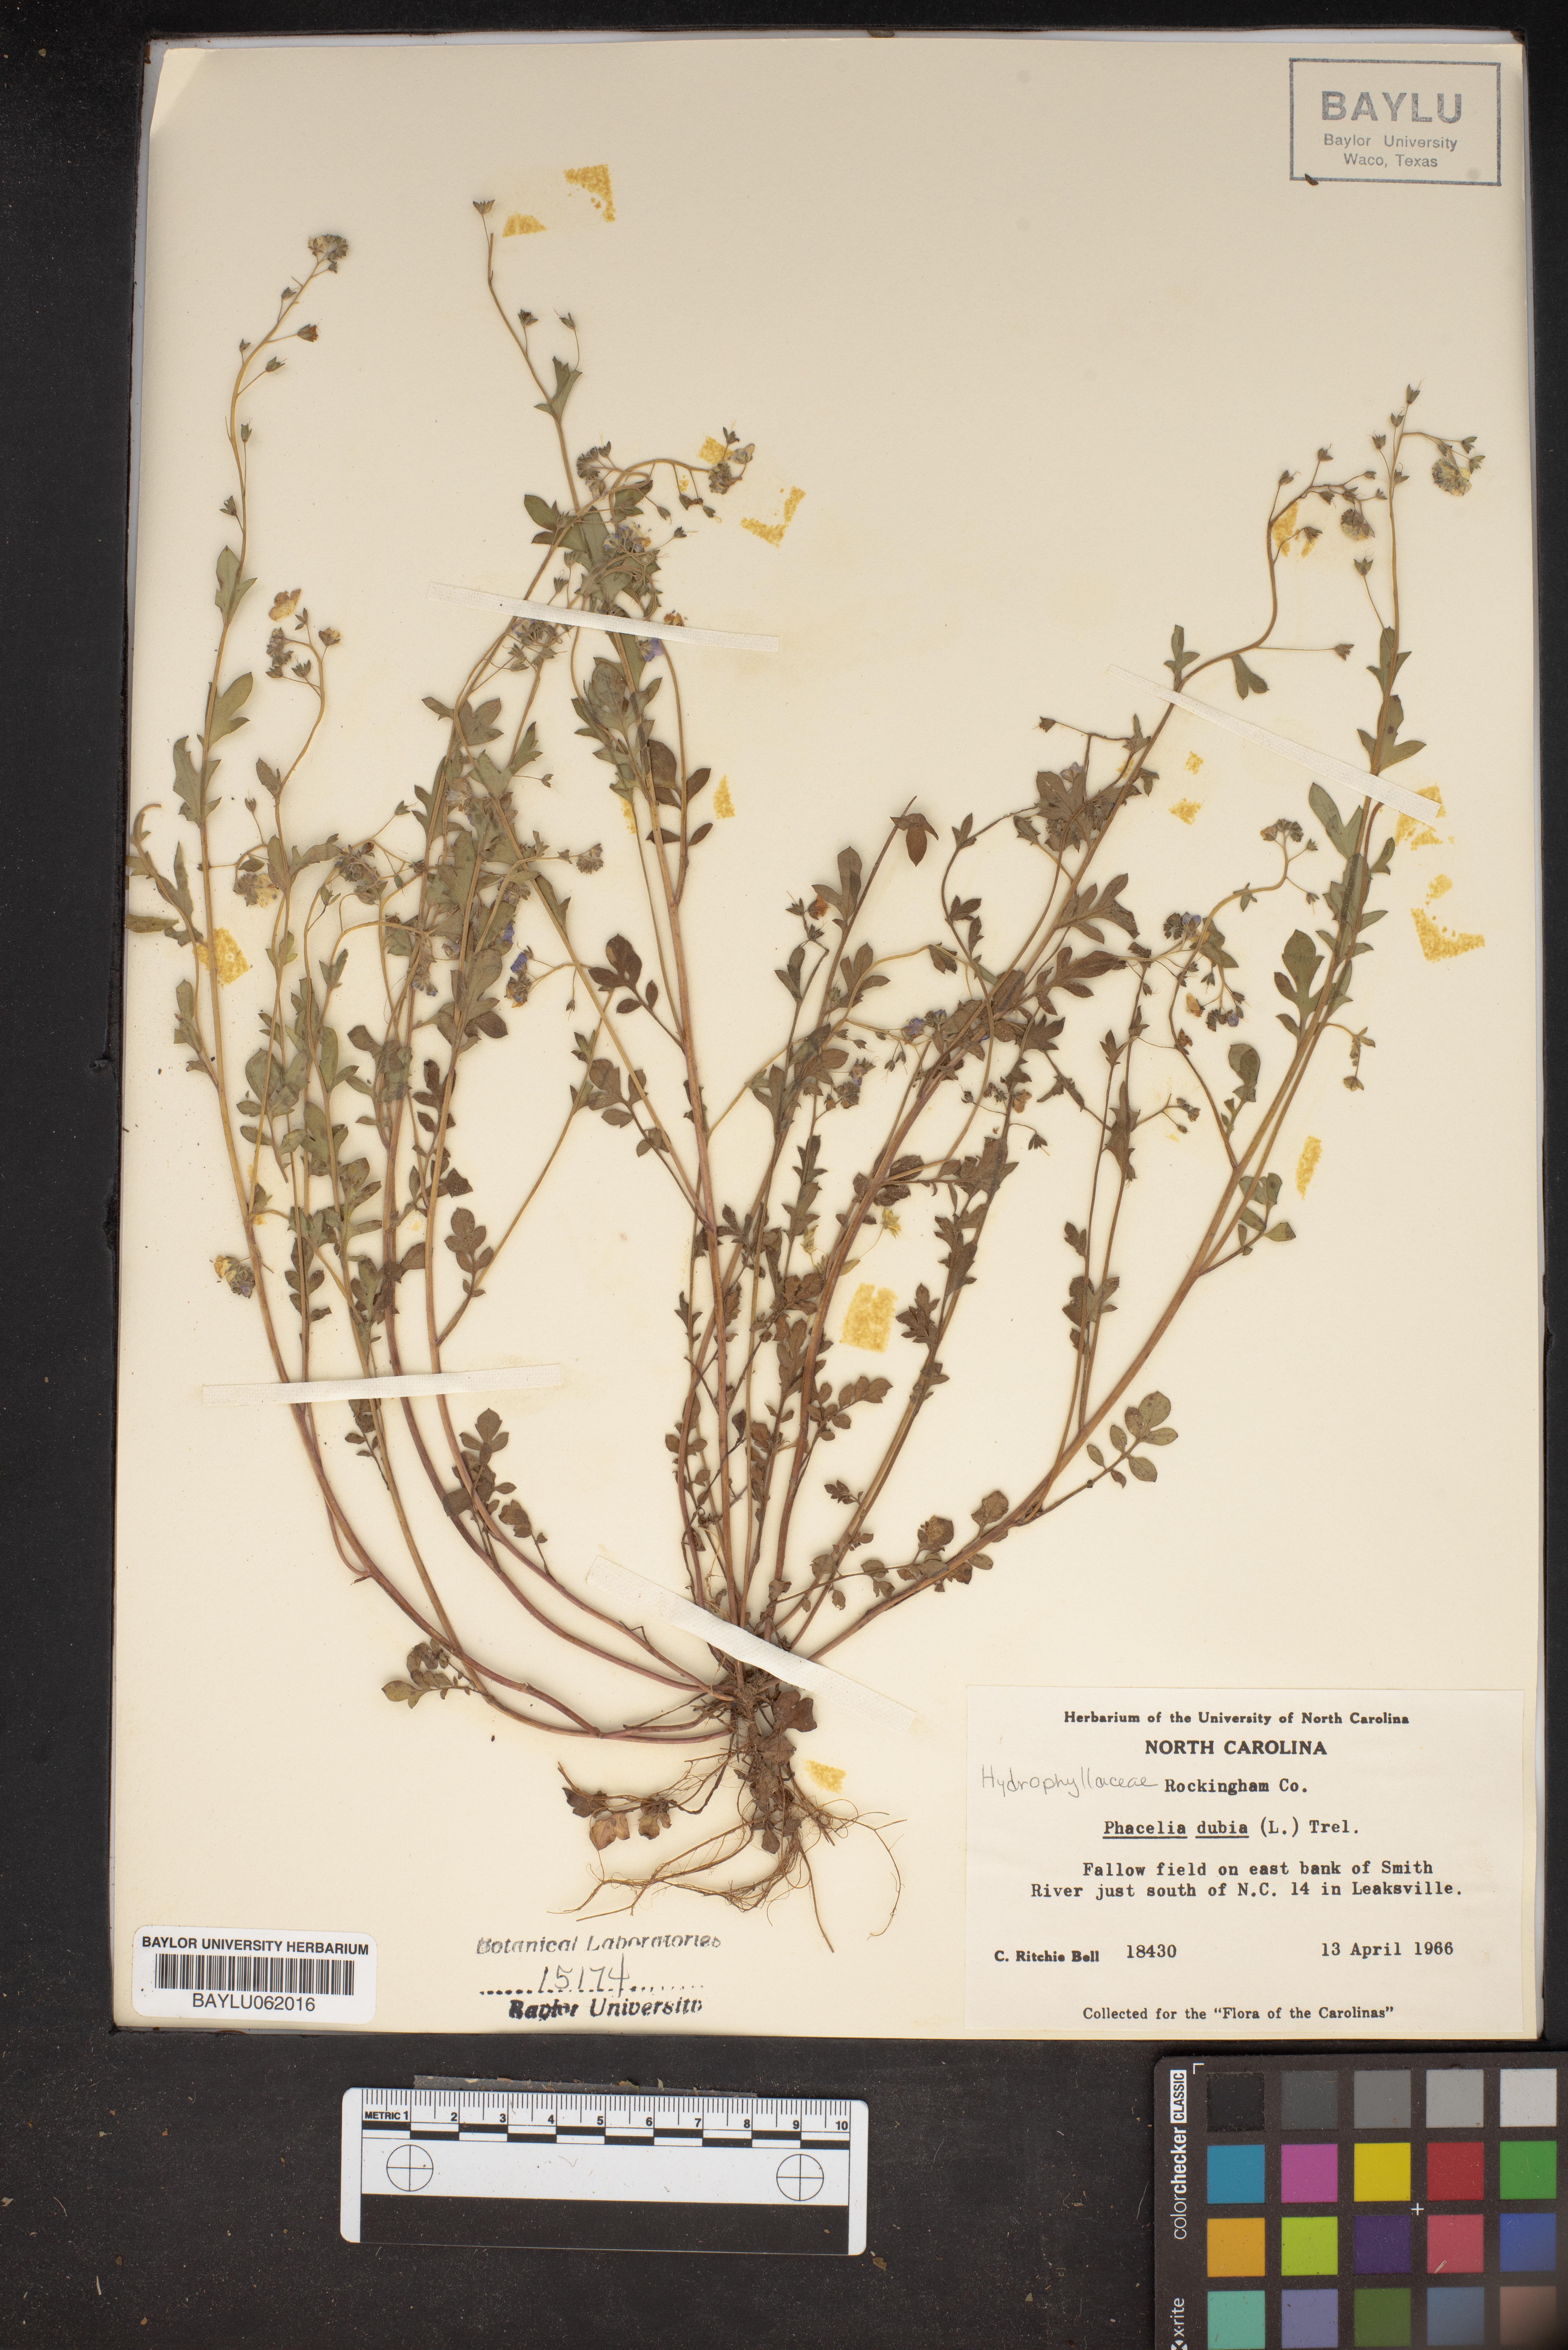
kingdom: Plantae
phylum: Tracheophyta
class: Magnoliopsida
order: Boraginales
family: Hydrophyllaceae
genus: Phacelia
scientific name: Phacelia dubia
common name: Appalachian phacelia
